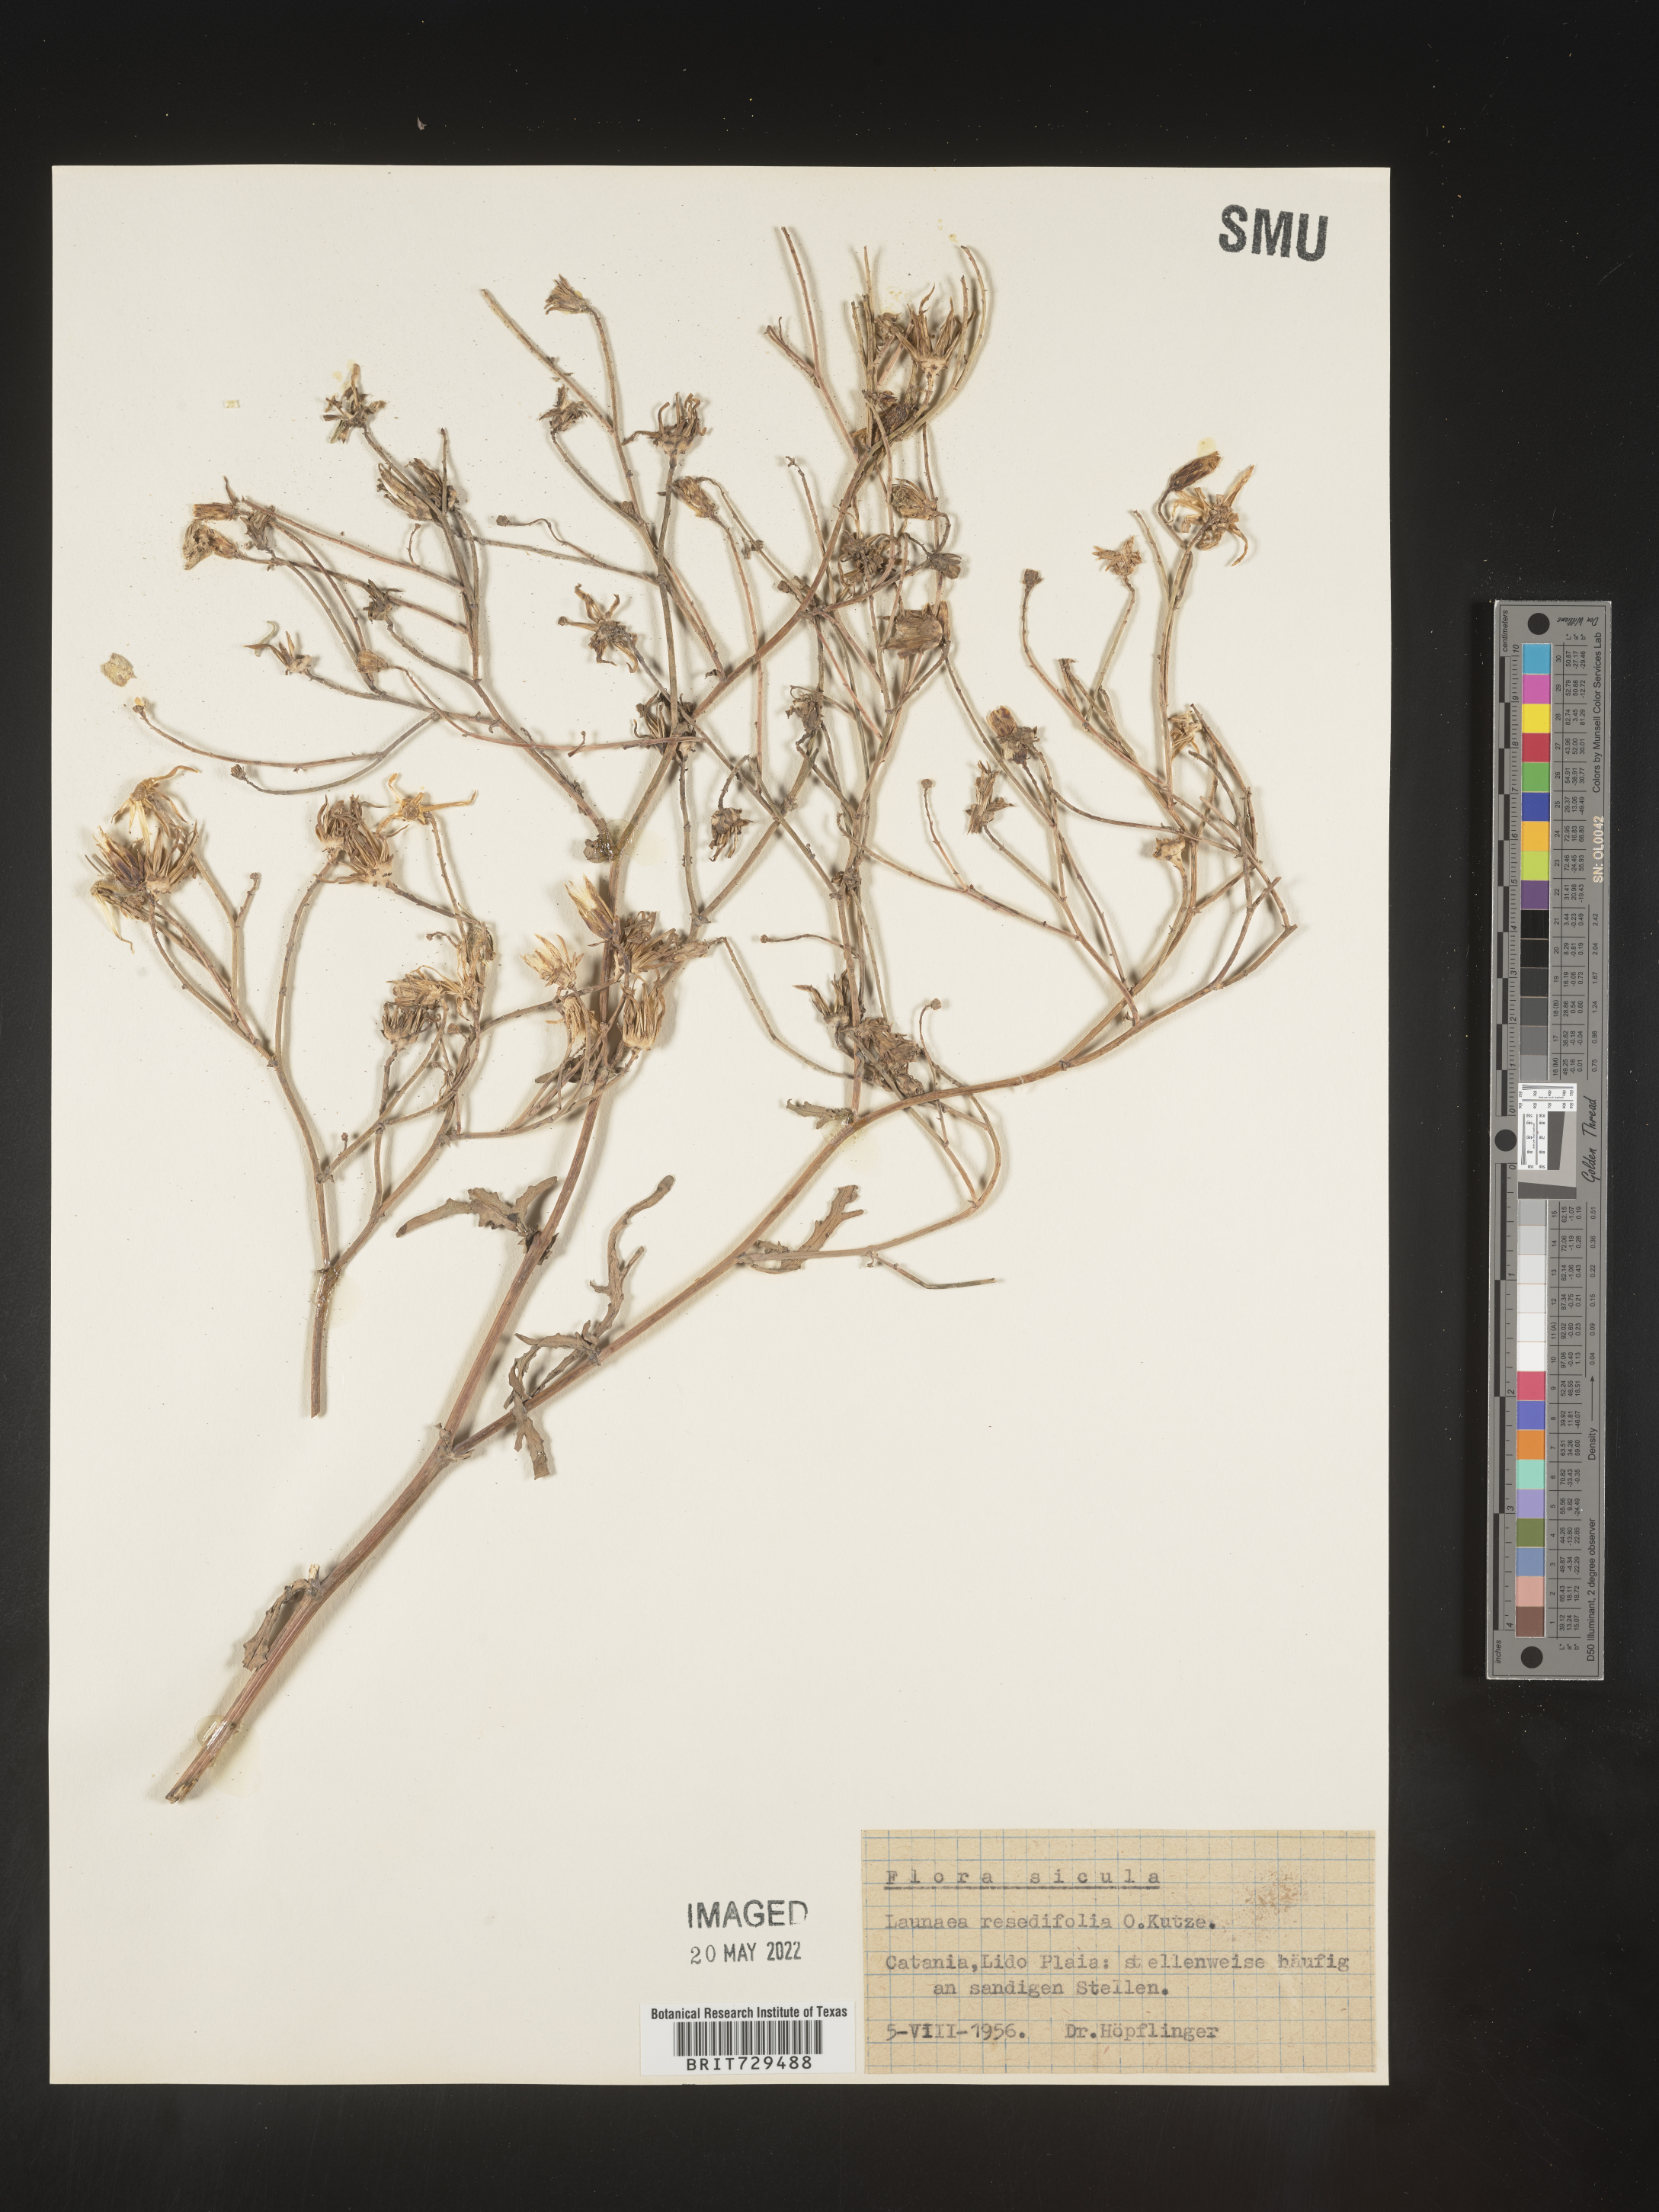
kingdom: Plantae
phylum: Tracheophyta
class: Magnoliopsida
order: Asterales
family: Asteraceae
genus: Launaea
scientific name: Launaea
